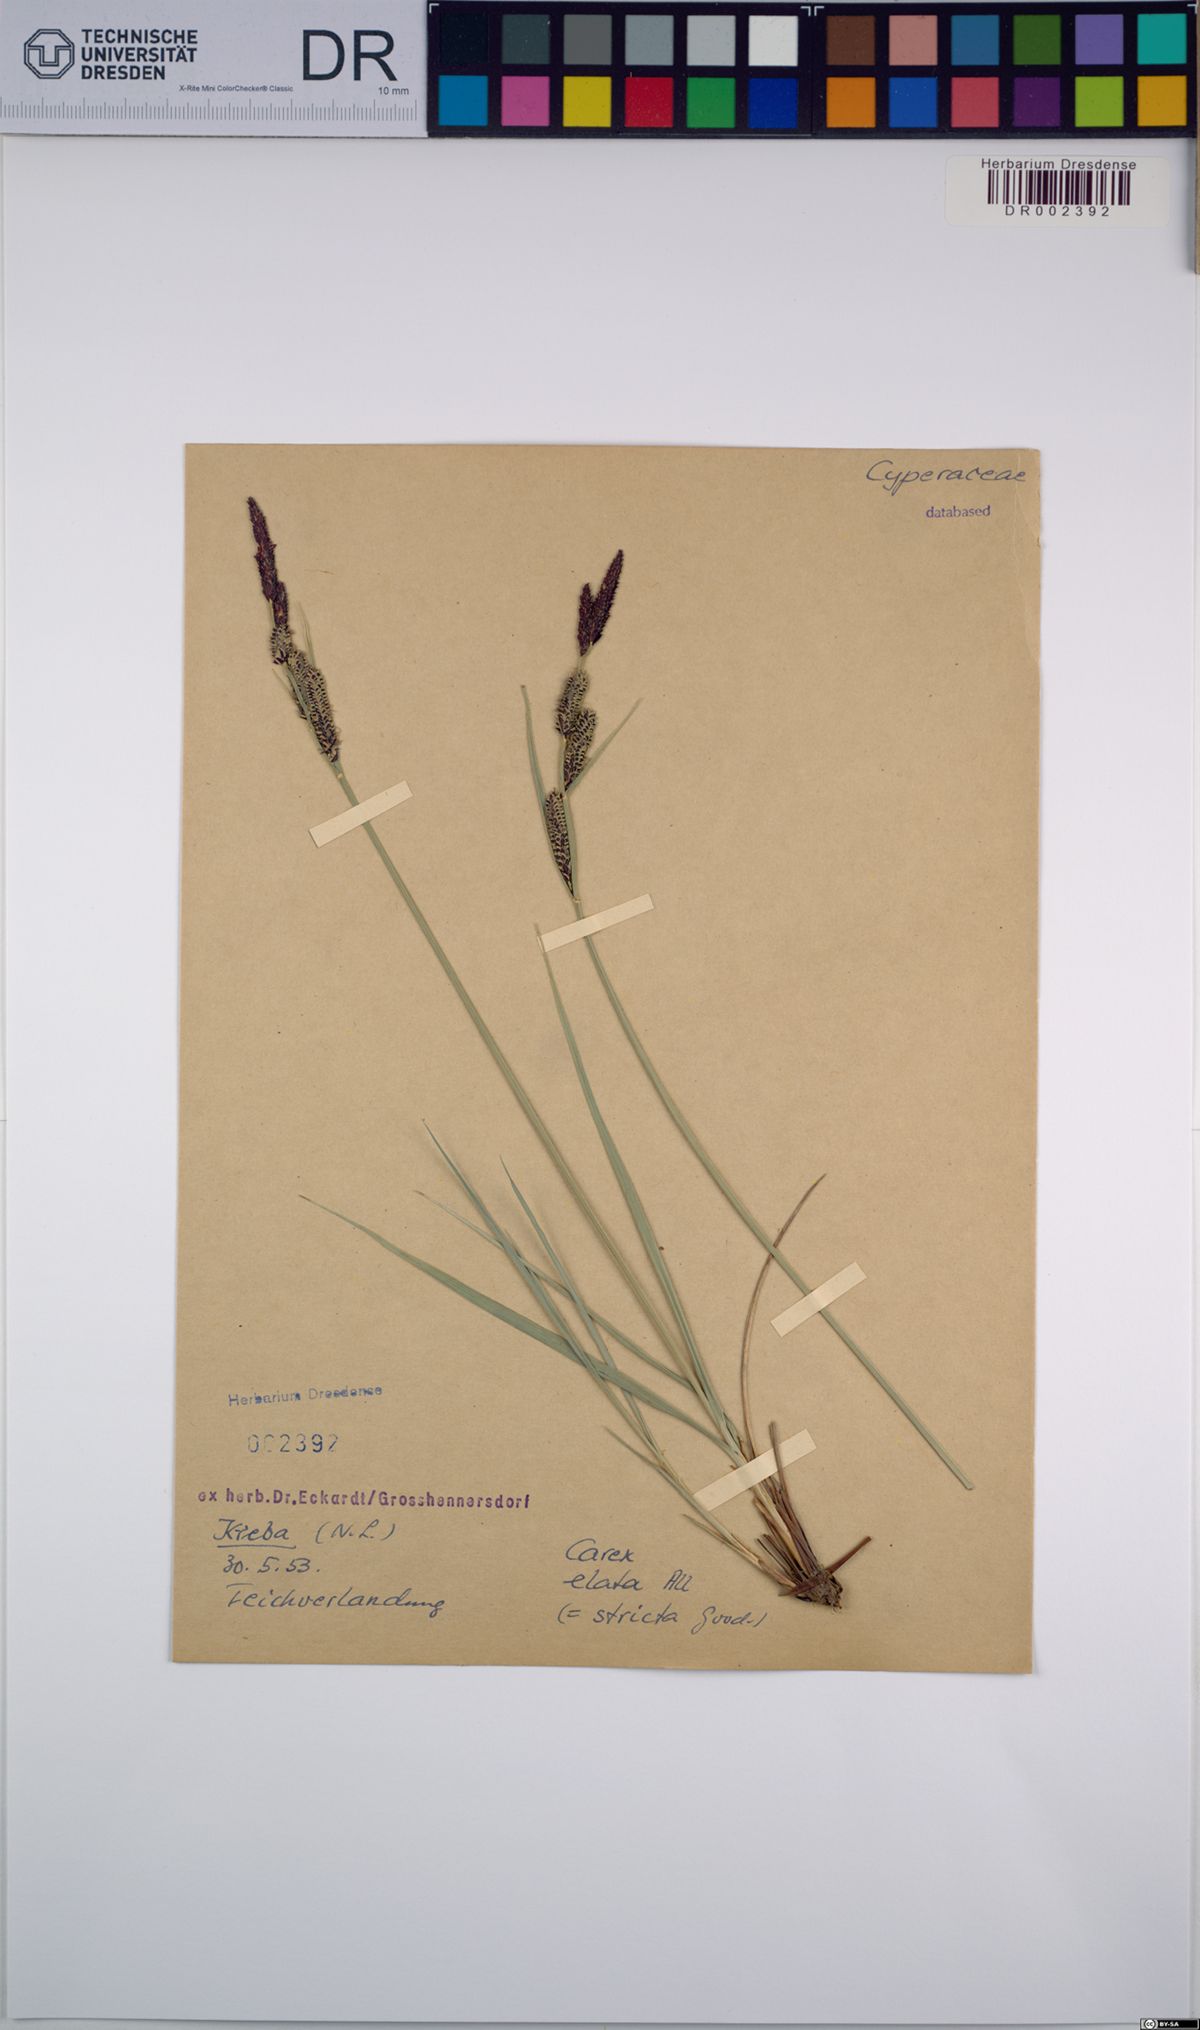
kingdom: Plantae
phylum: Tracheophyta
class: Liliopsida
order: Poales
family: Cyperaceae
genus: Carex
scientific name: Carex elata
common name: Tufted sedge
